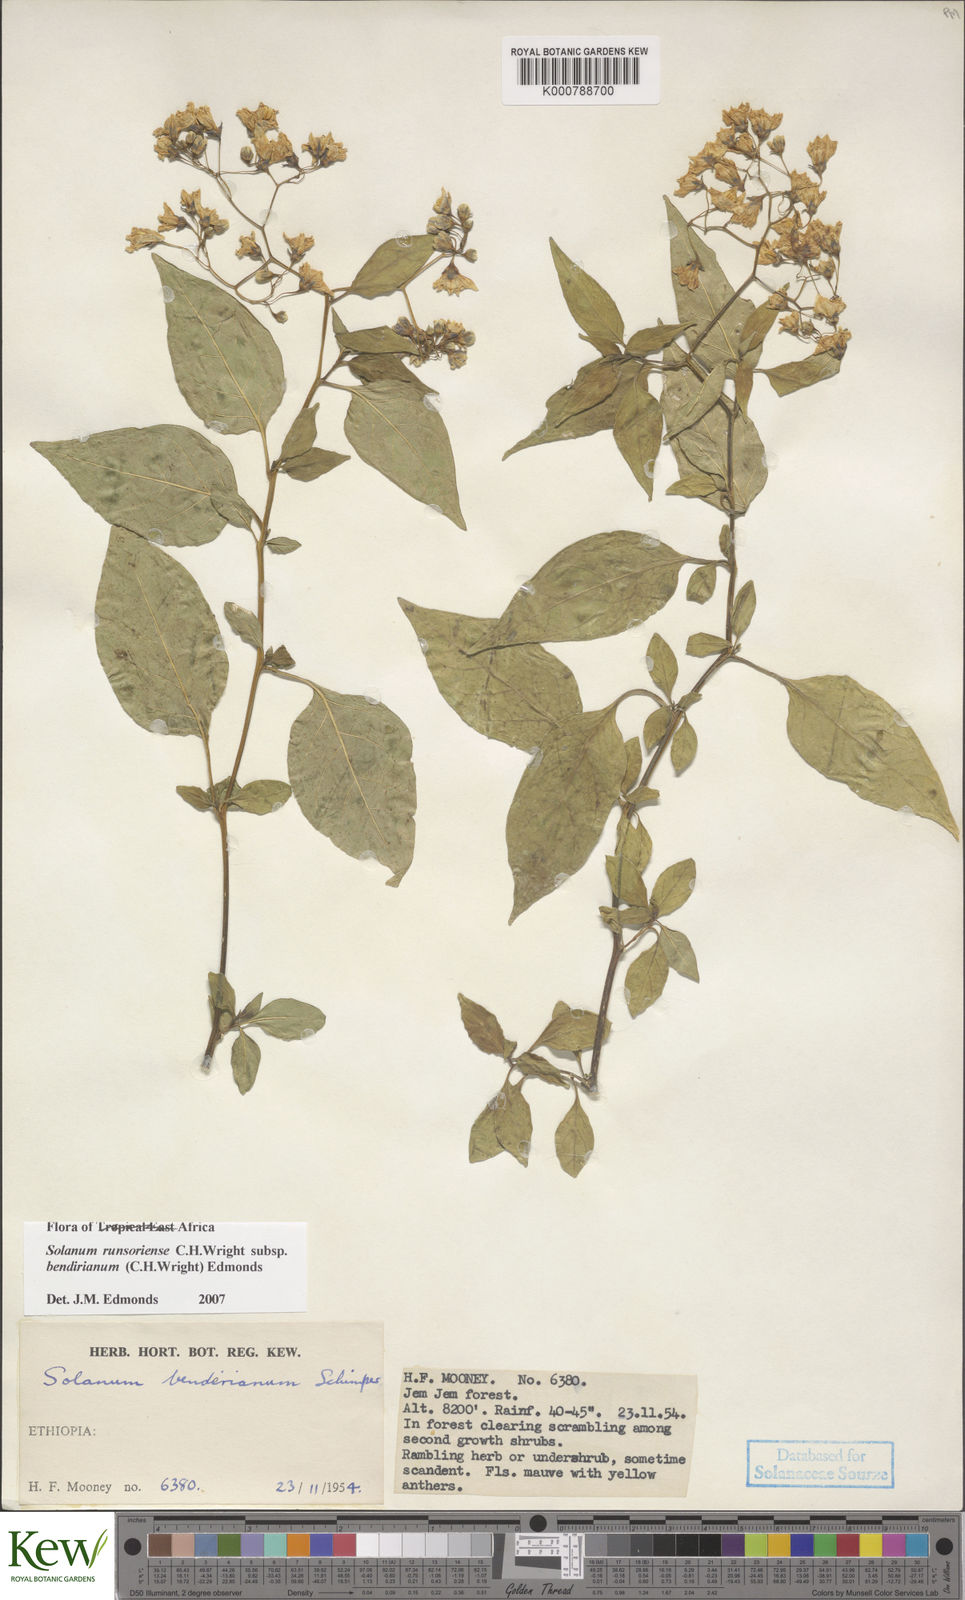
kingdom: Plantae
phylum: Tracheophyta
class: Magnoliopsida
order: Solanales
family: Solanaceae
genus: Solanum
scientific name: Solanum runsoriense
